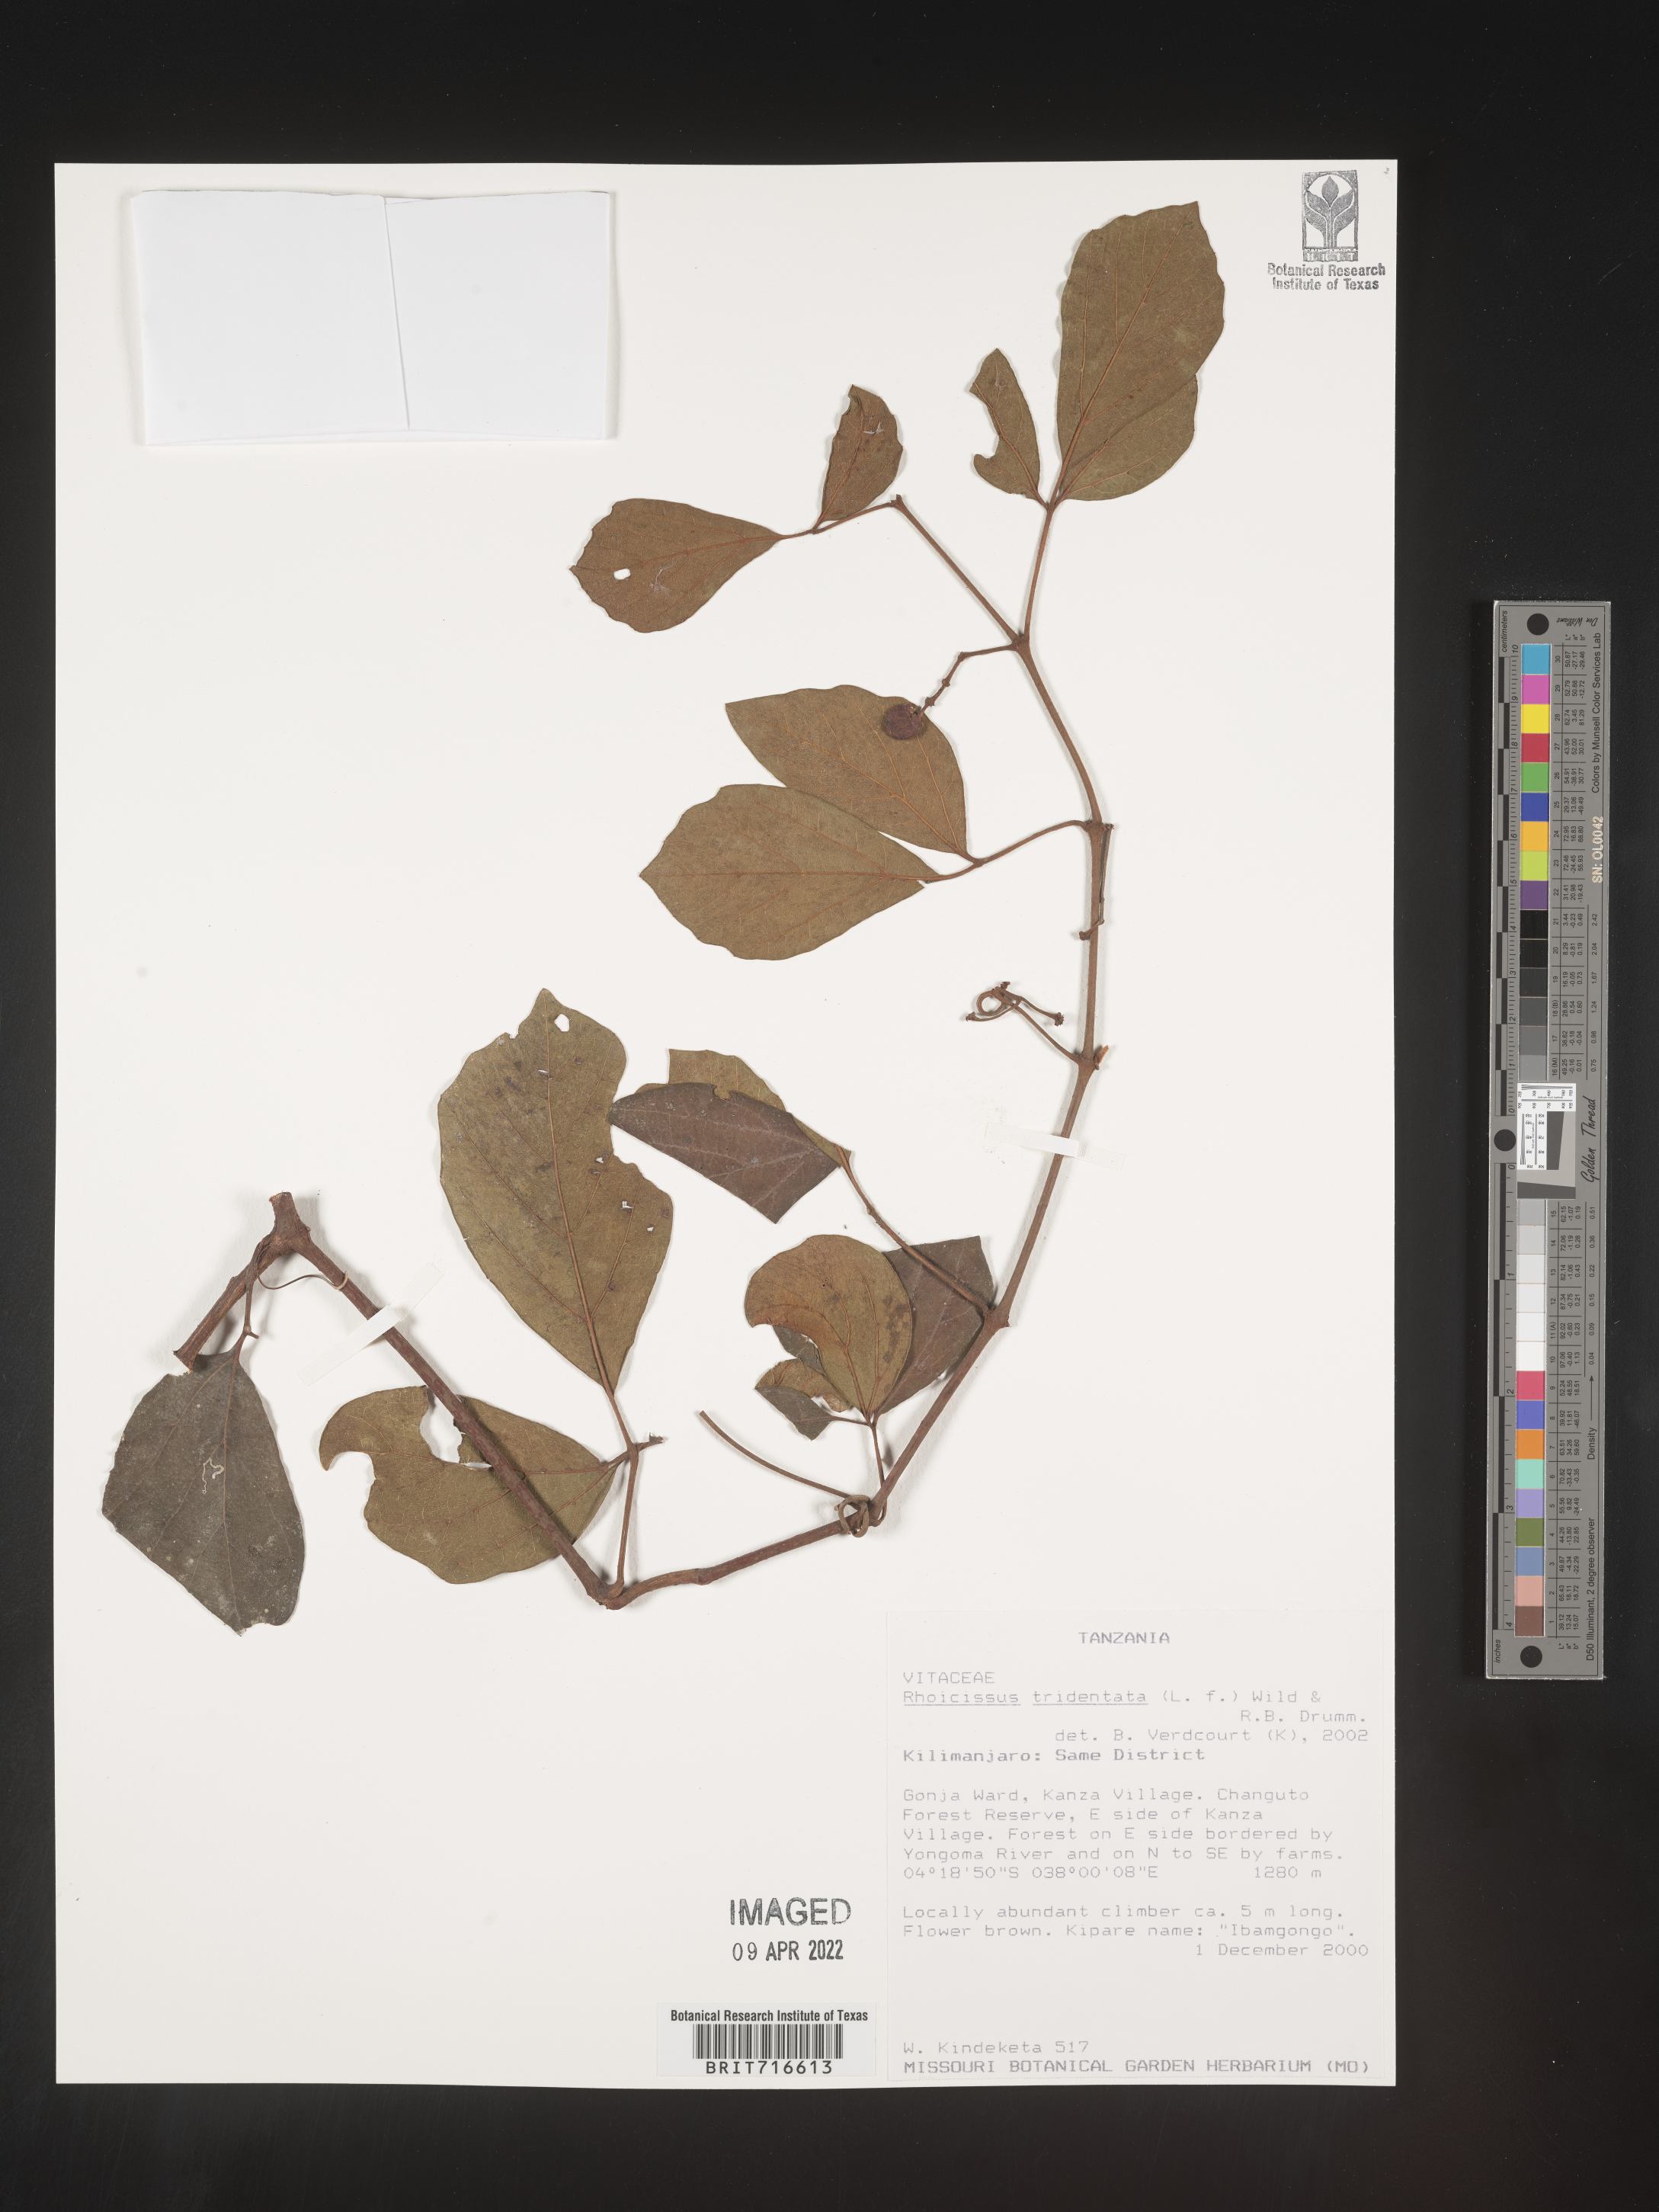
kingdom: Plantae
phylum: Tracheophyta
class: Magnoliopsida
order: Vitales
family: Vitaceae
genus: Rhoicissus
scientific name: Rhoicissus tridentata
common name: Common forest grape
